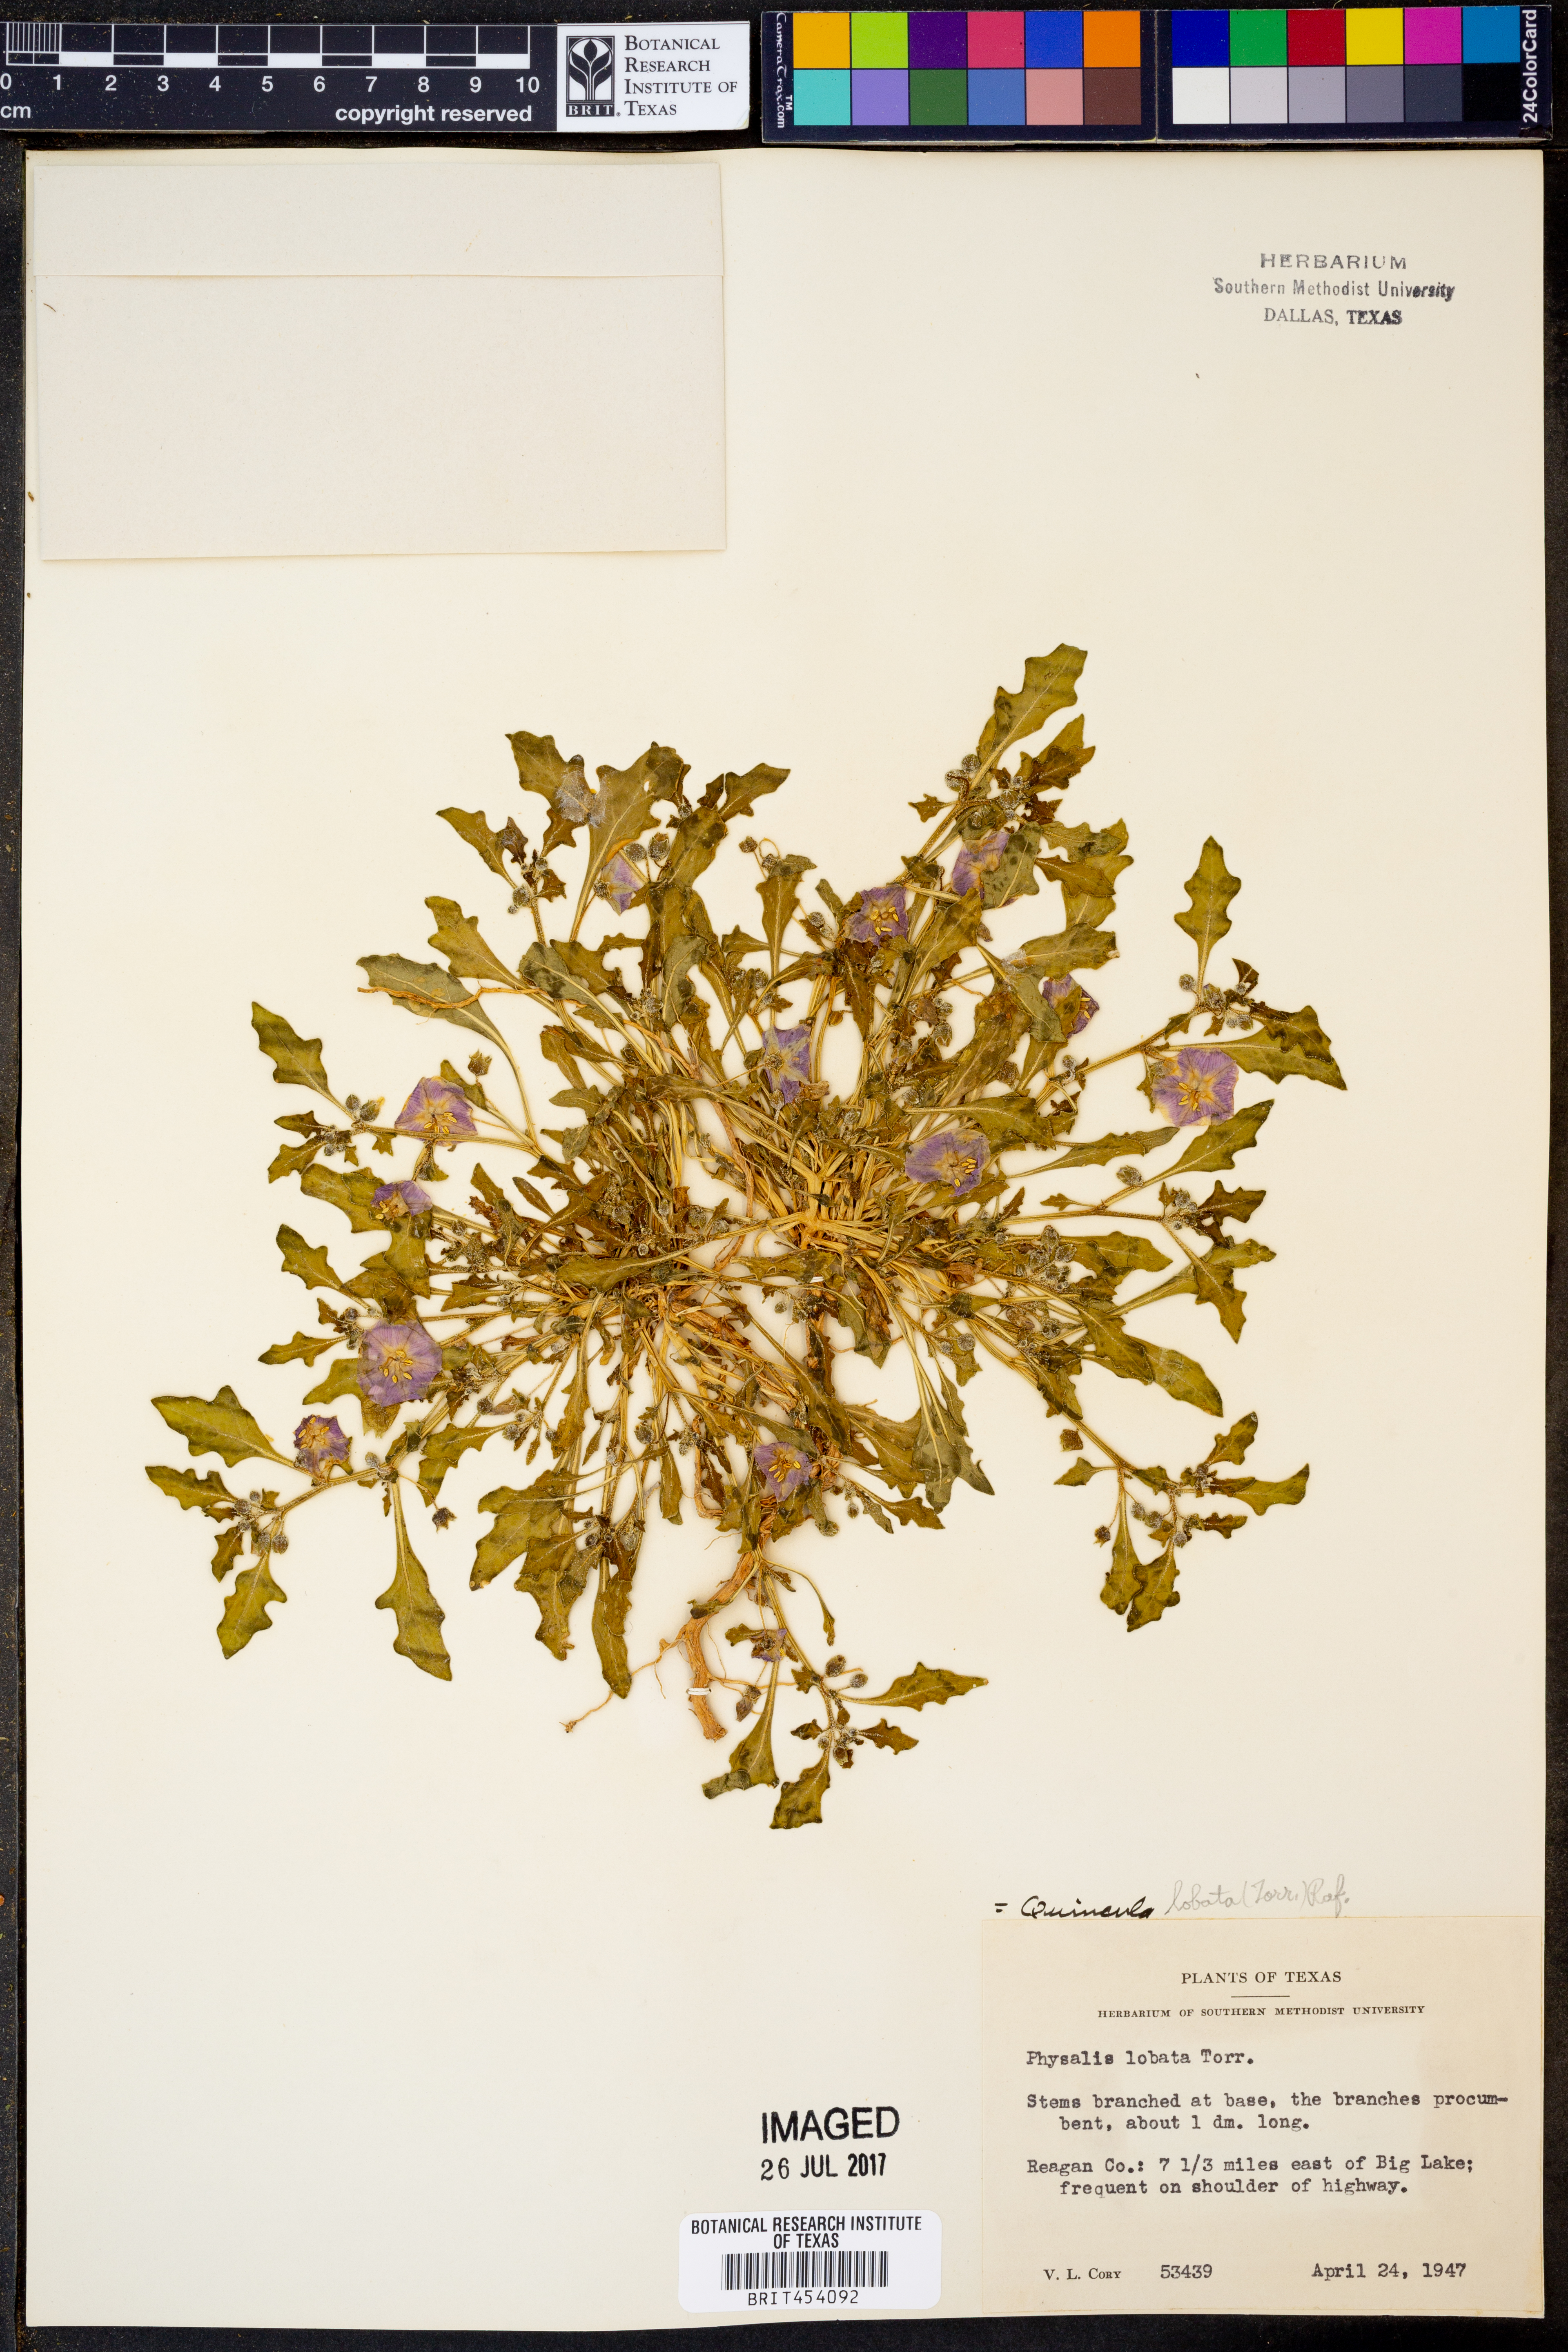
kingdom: Plantae
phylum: Tracheophyta
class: Magnoliopsida
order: Solanales
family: Solanaceae
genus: Quincula
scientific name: Quincula lobata
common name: Purple-ground-cherry
